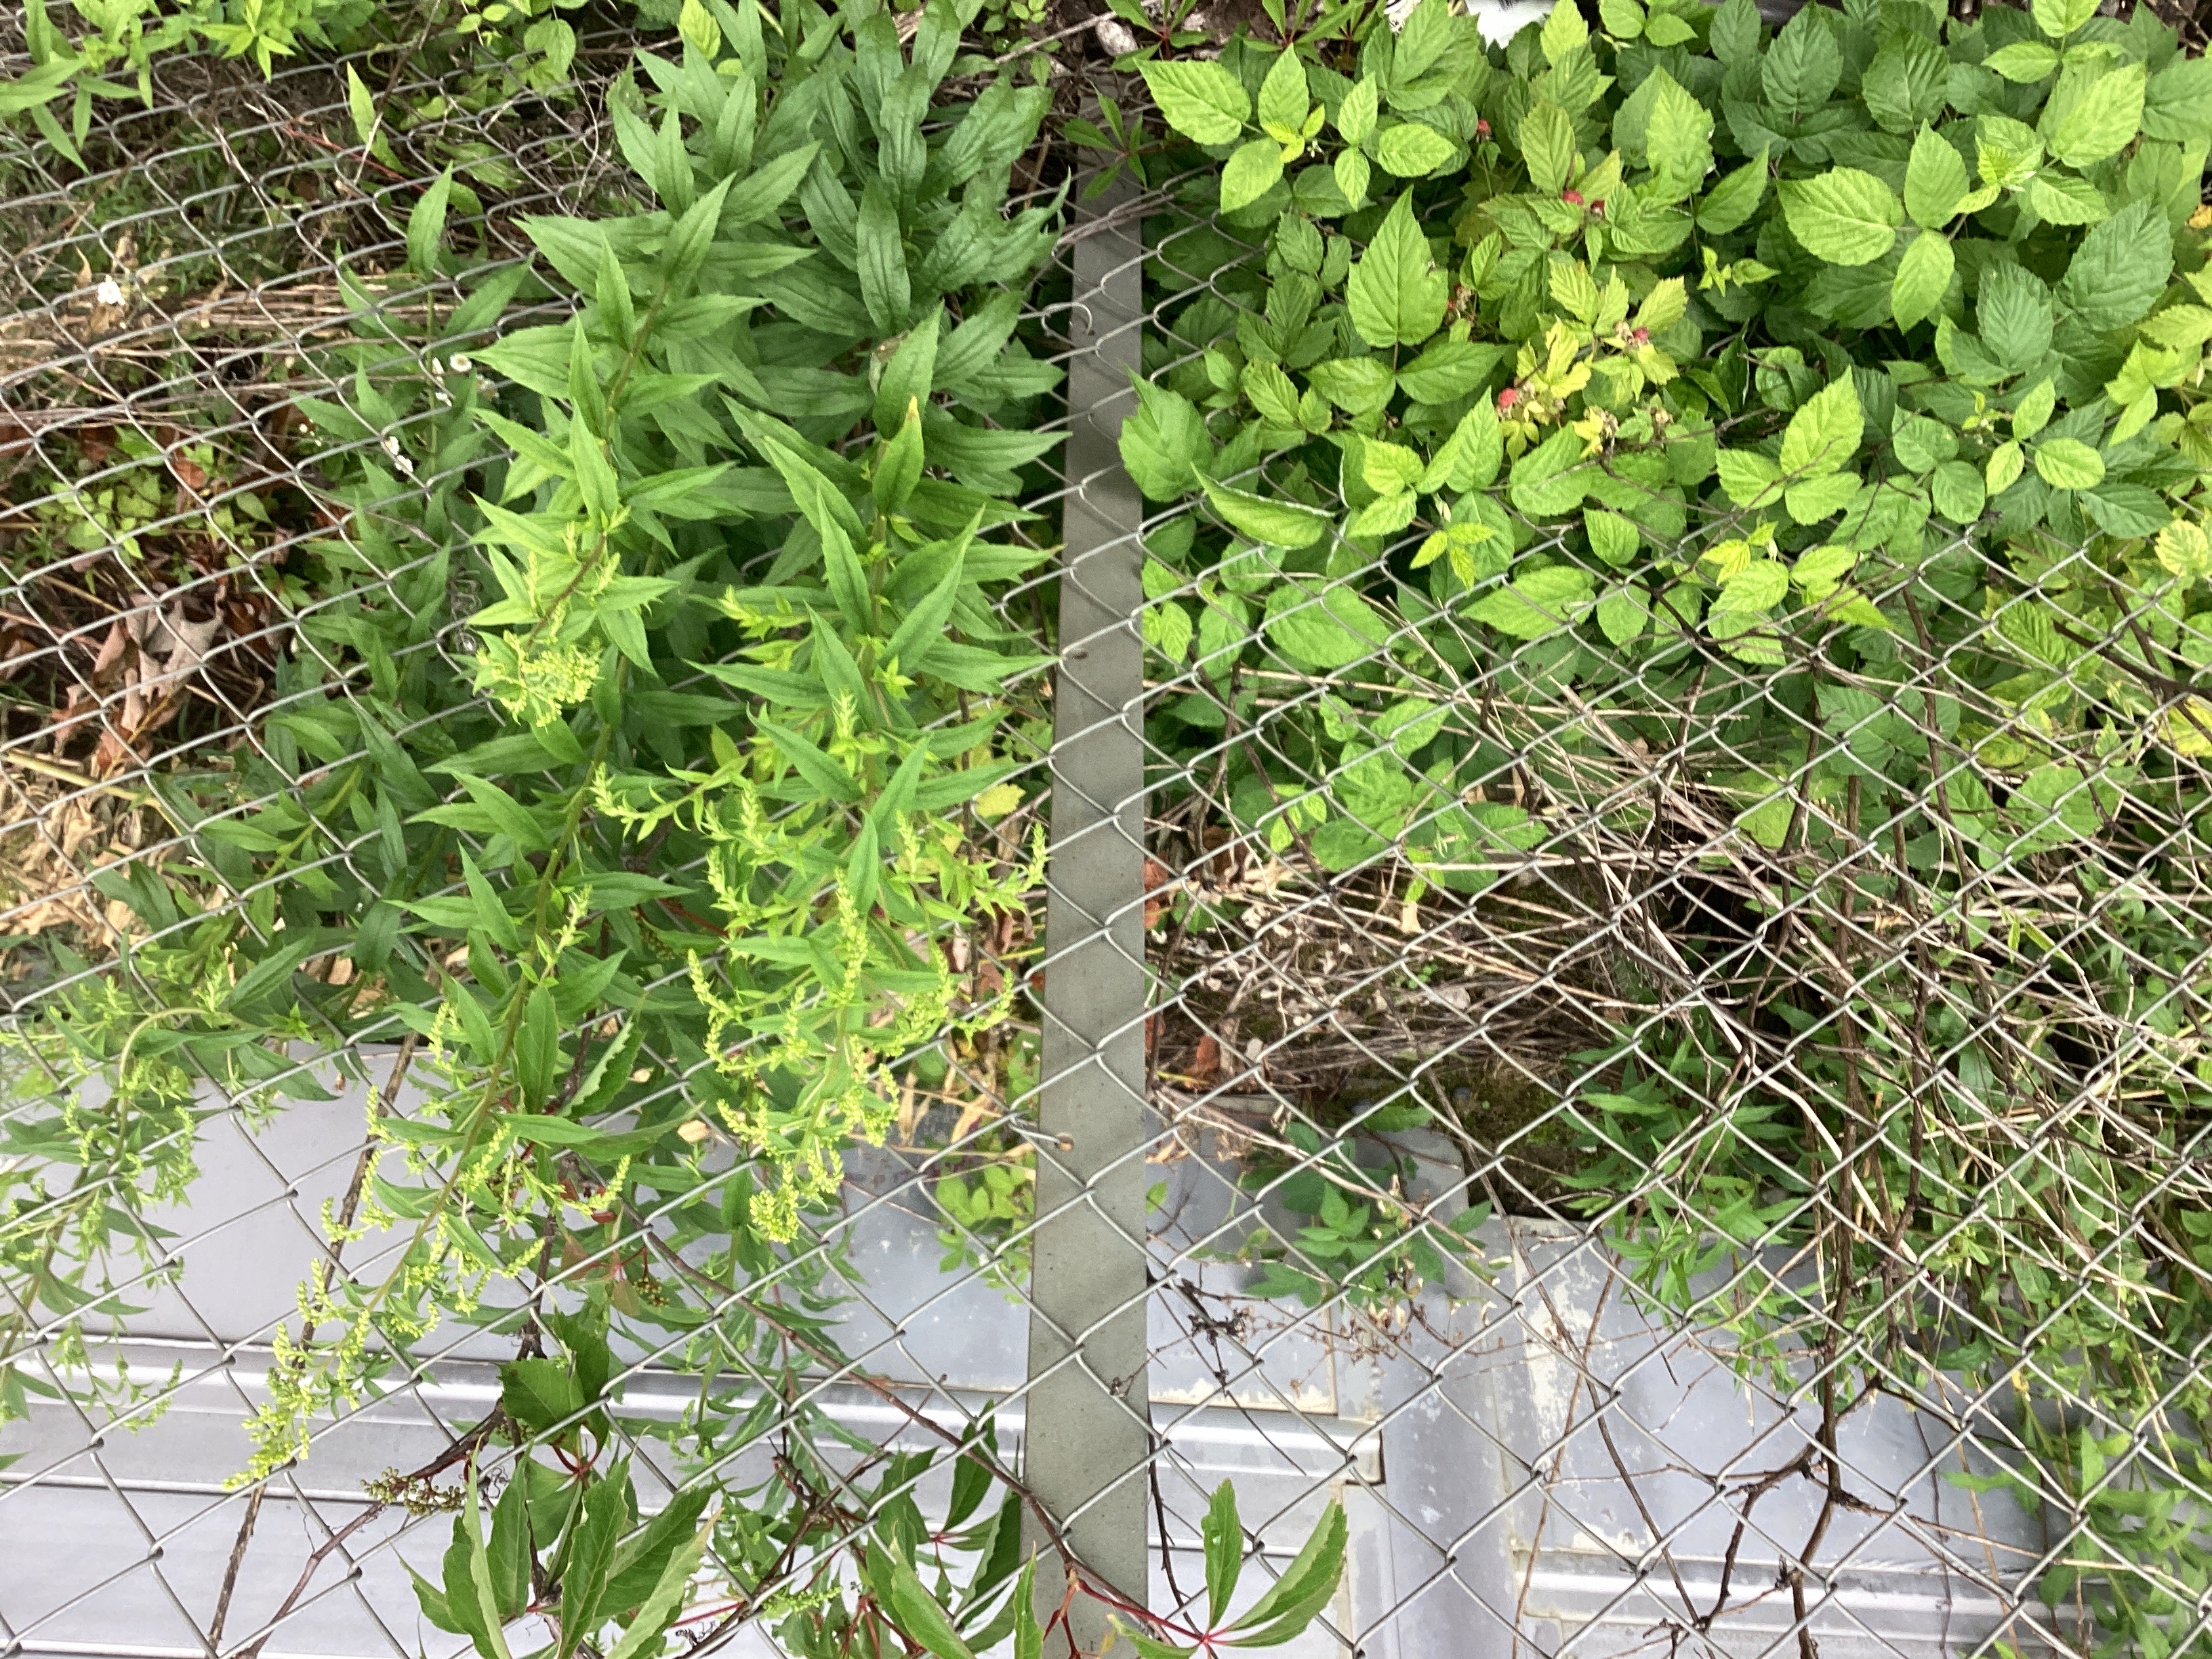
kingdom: Plantae
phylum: Tracheophyta
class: Magnoliopsida
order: Asterales
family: Asteraceae
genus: Solidago
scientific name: Solidago canadensis
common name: kanadagullris
